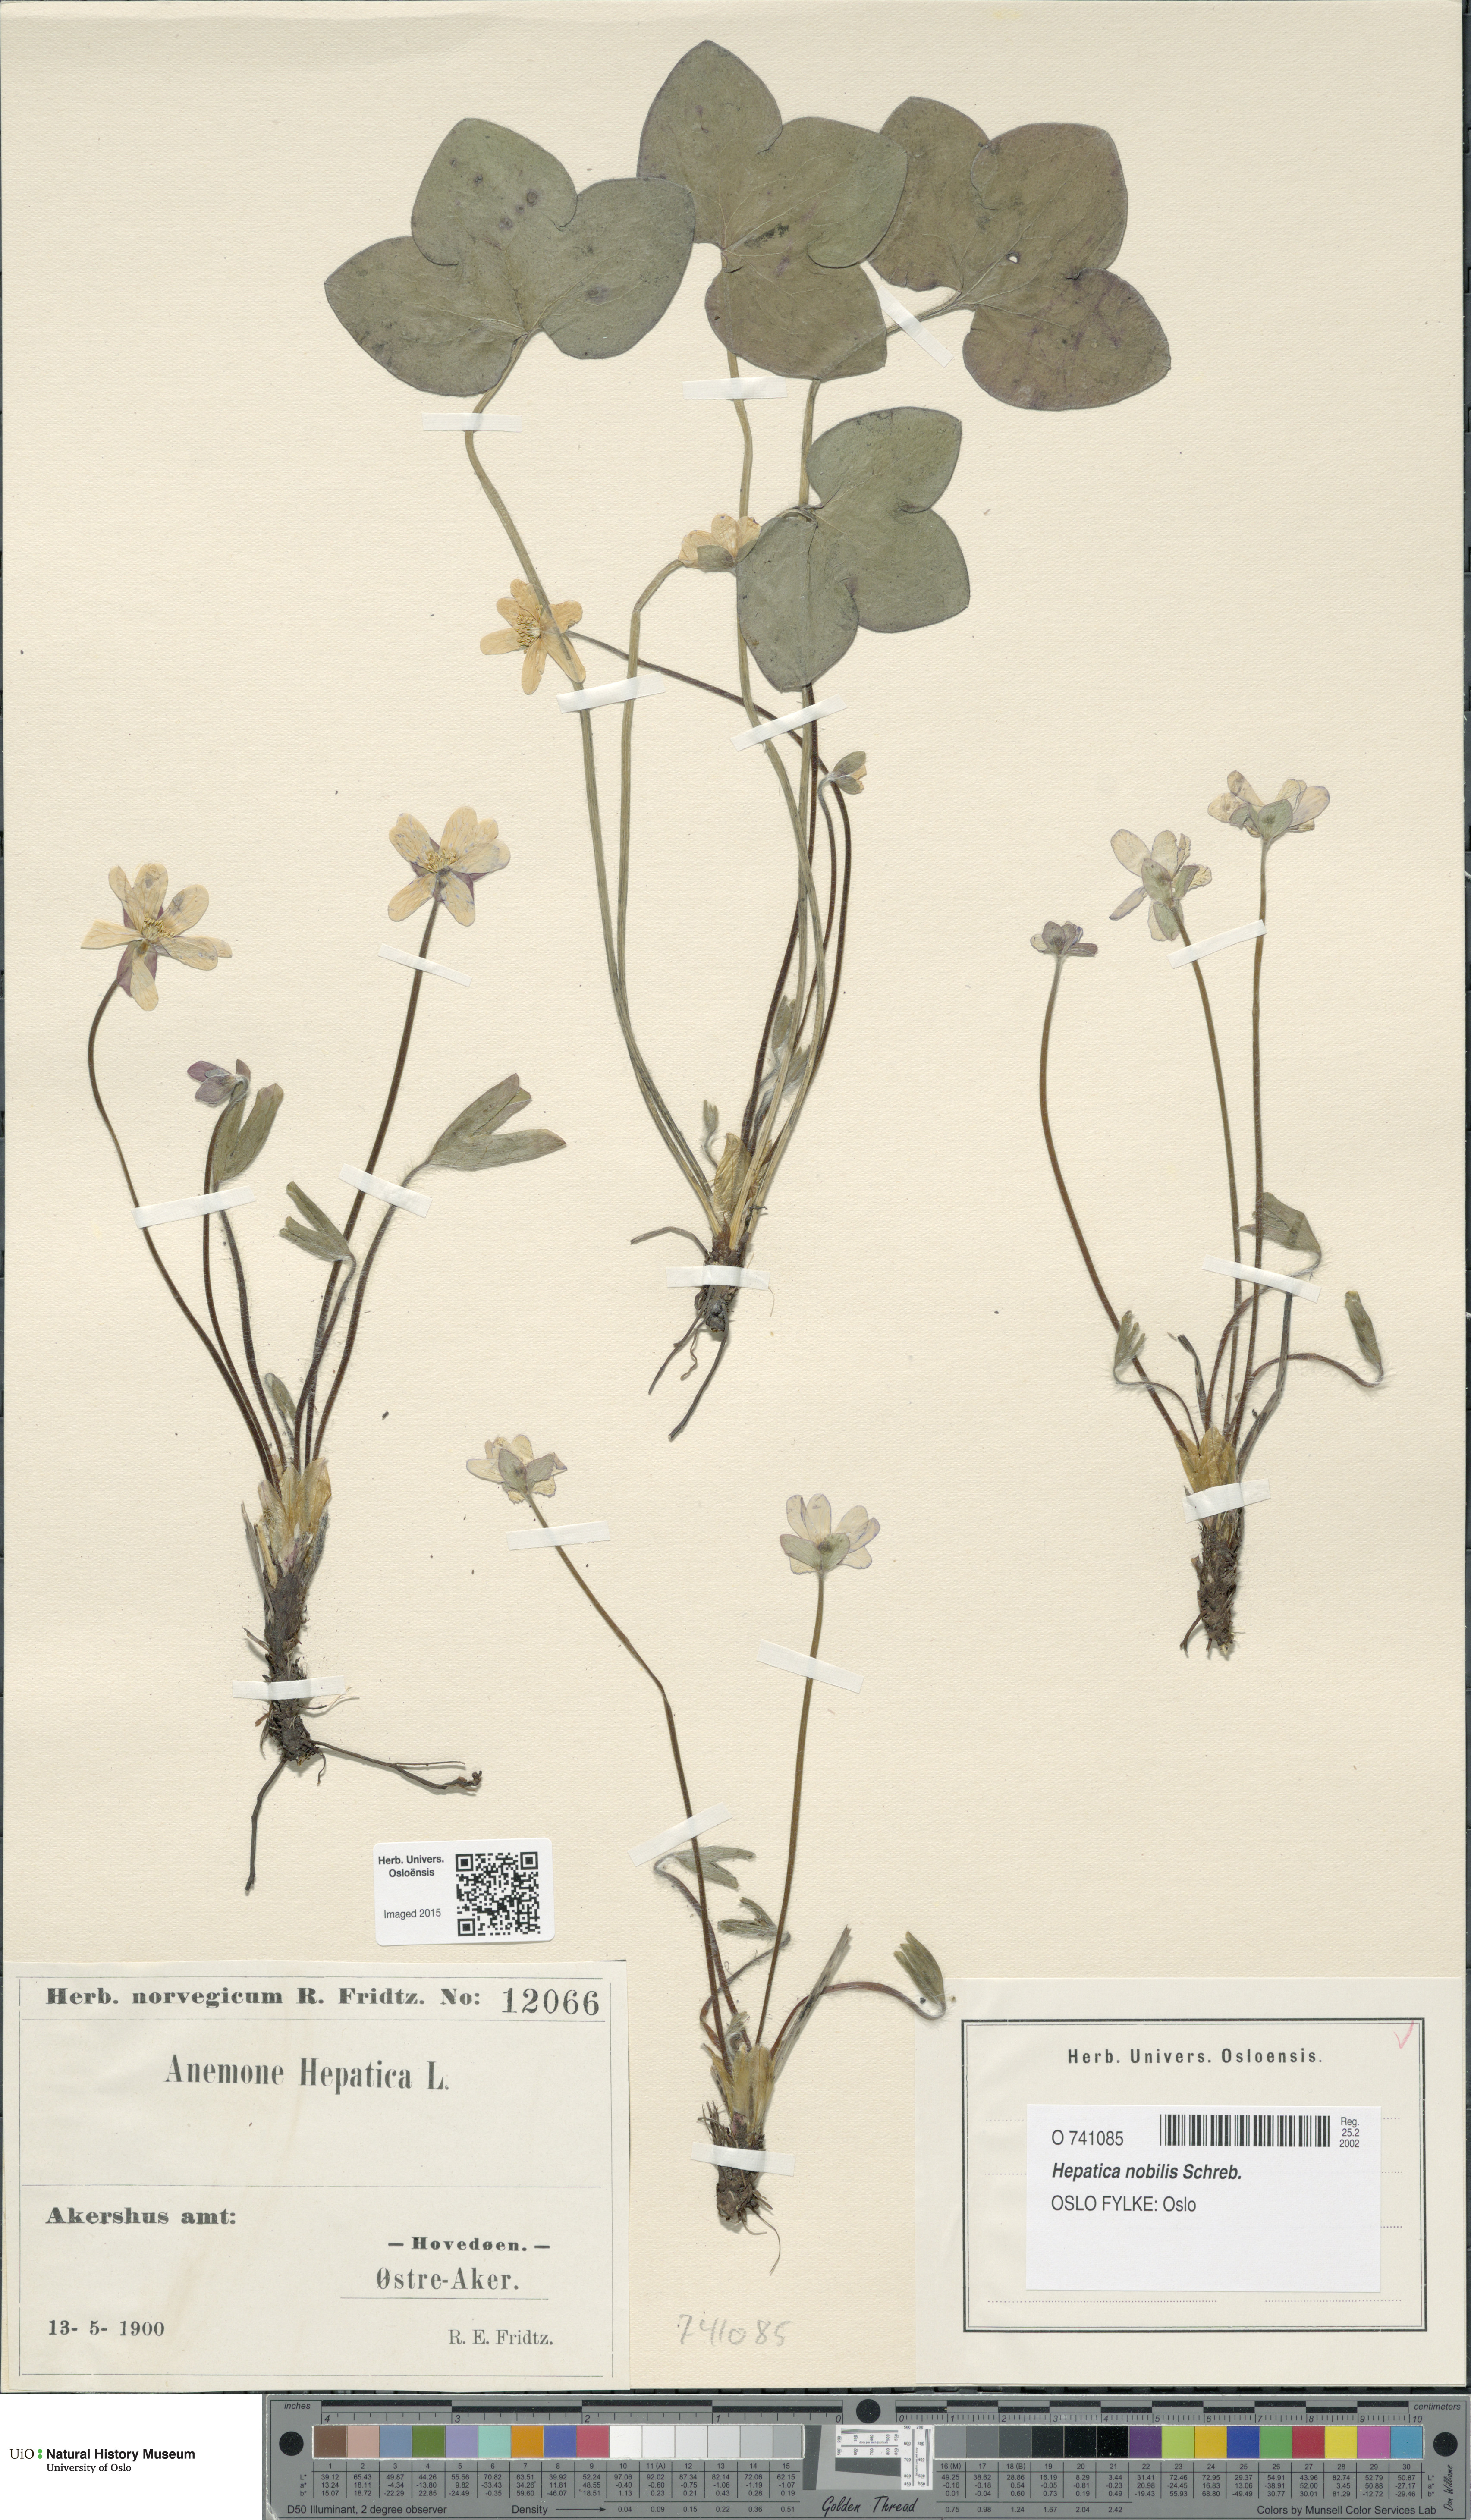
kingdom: Plantae
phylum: Tracheophyta
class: Magnoliopsida
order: Ranunculales
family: Ranunculaceae
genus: Hepatica
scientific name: Hepatica nobilis
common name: Liverleaf
